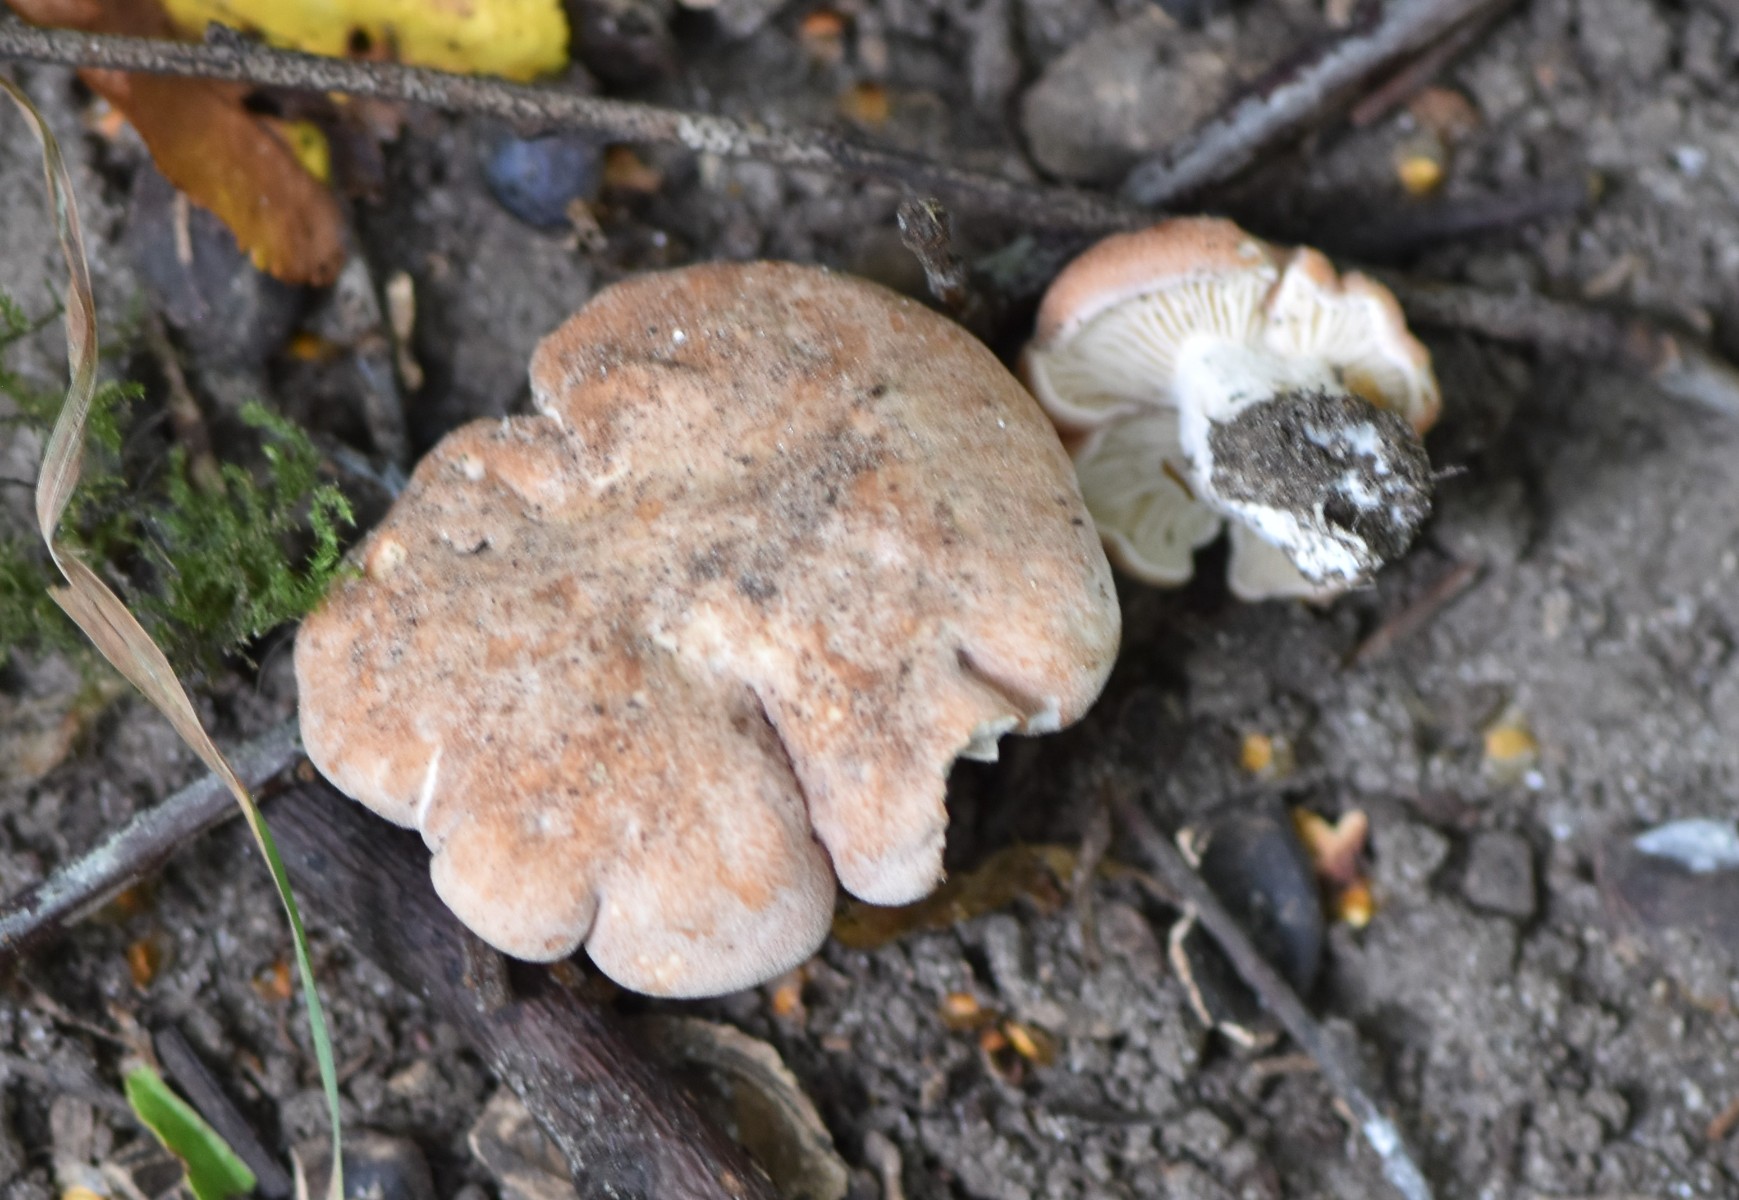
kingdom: Fungi
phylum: Basidiomycota
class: Agaricomycetes
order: Agaricales
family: Entolomataceae
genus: Clitopilus
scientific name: Clitopilus geminus
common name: kødfarvet troldhat
